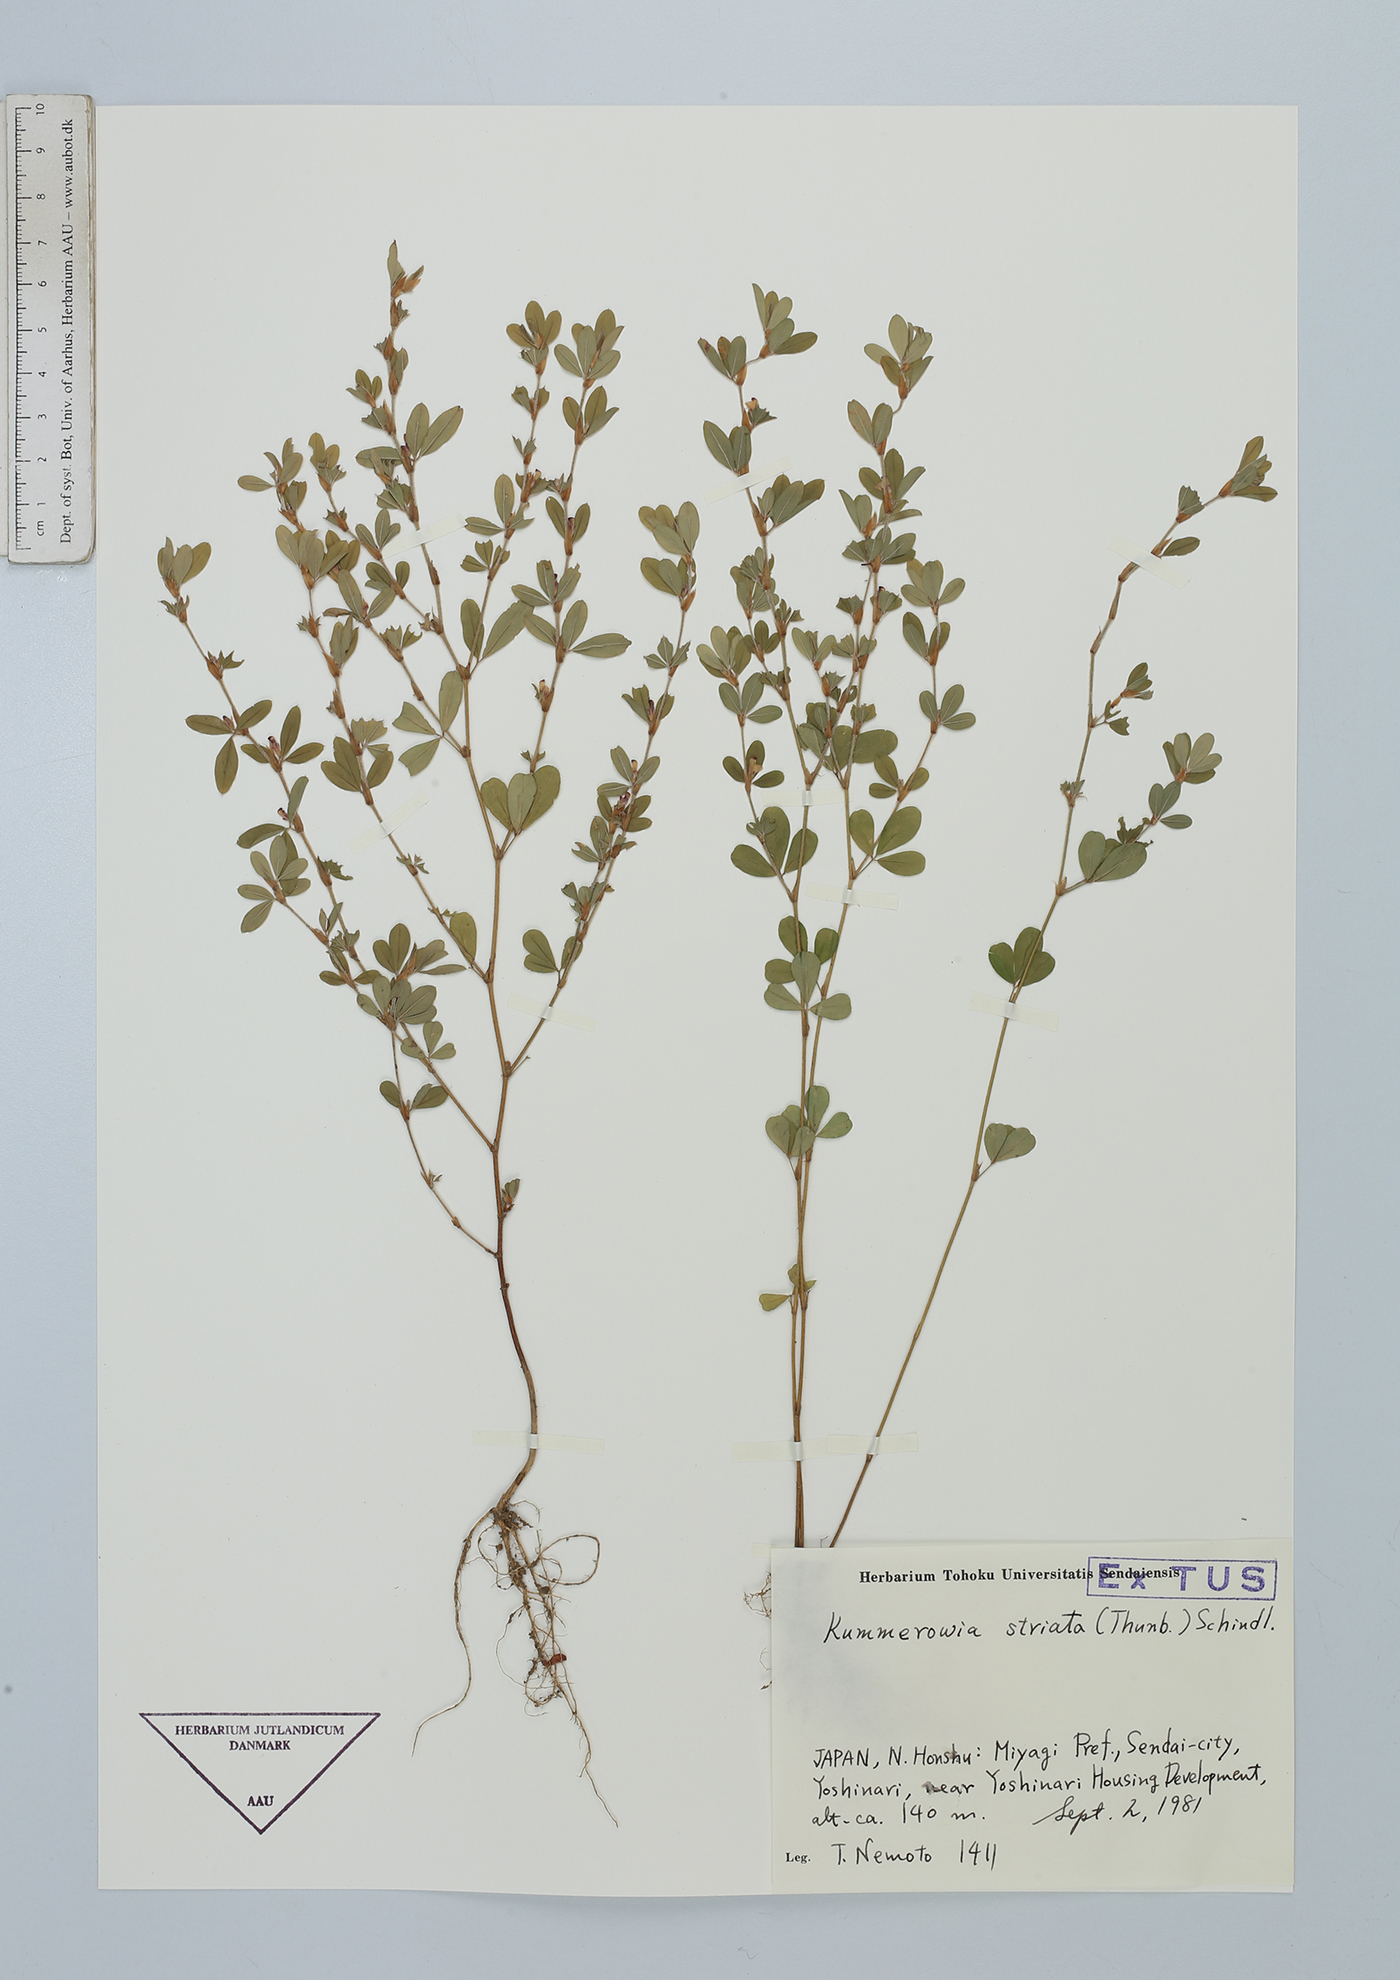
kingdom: Plantae
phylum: Tracheophyta
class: Magnoliopsida
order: Fabales
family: Fabaceae
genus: Kummerowia
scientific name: Kummerowia striata
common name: Japanese clover
